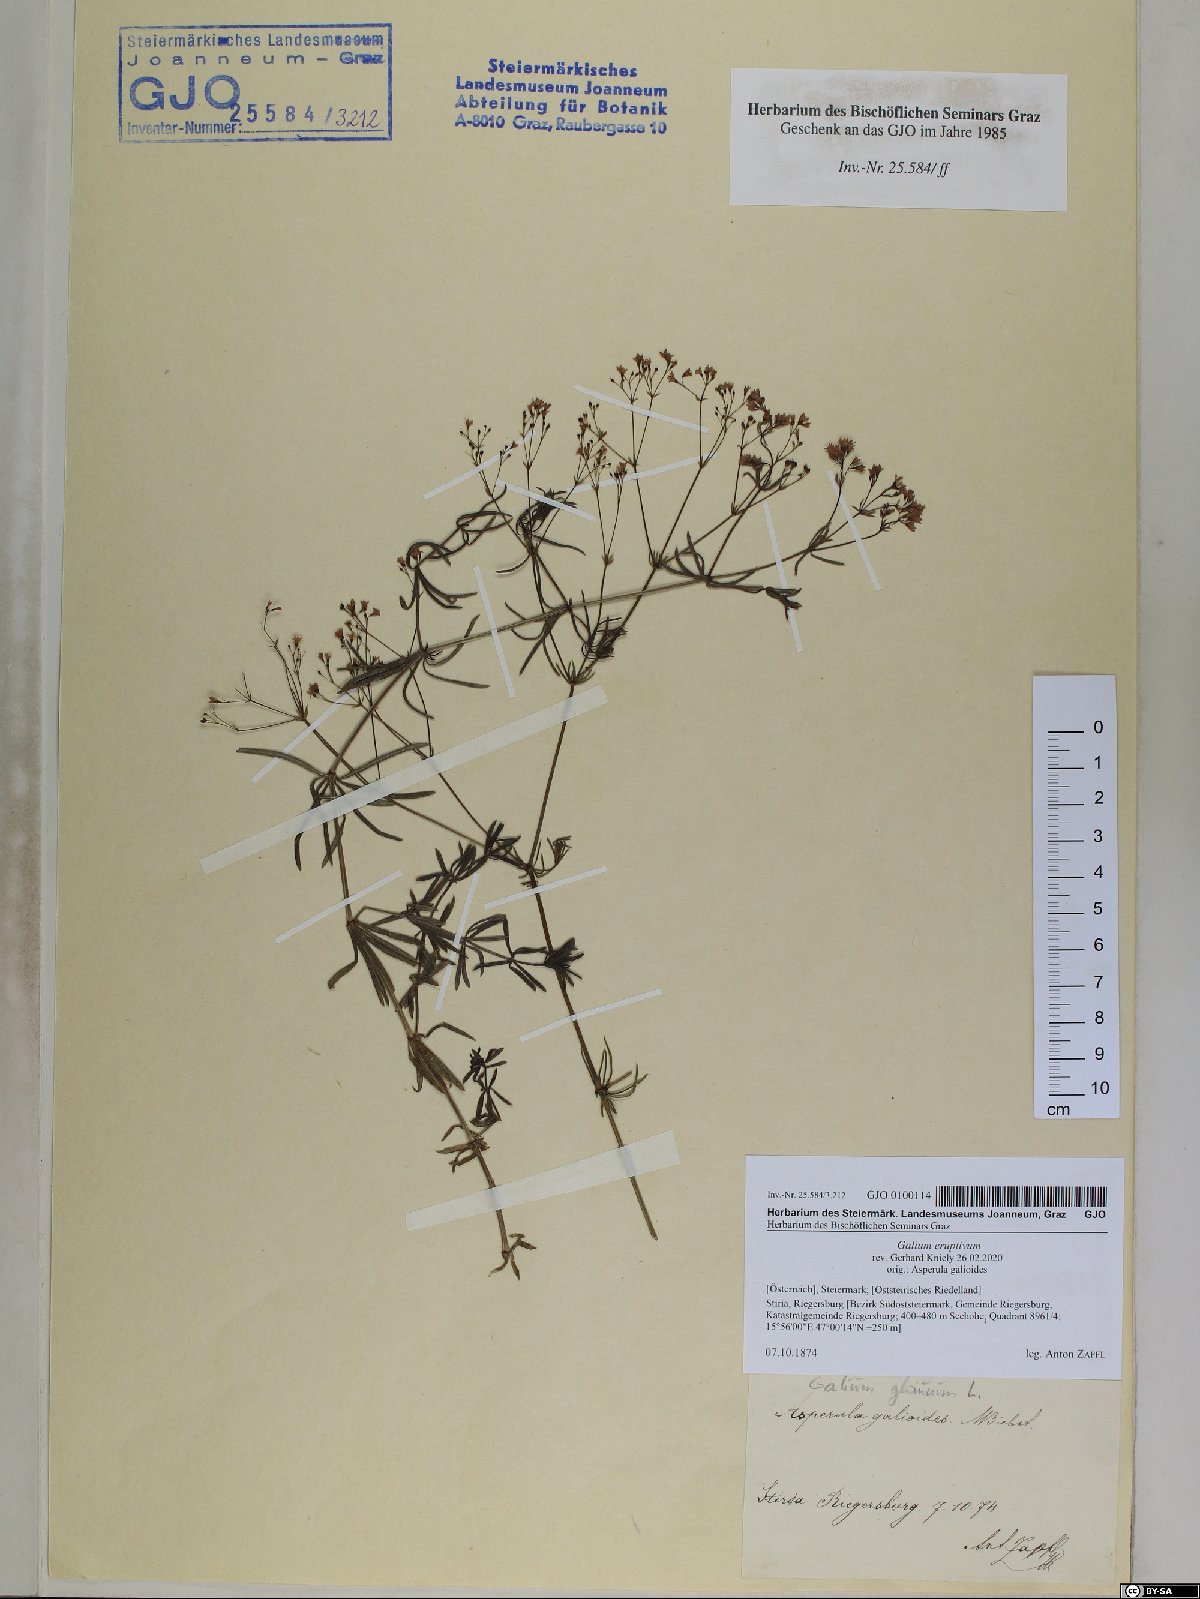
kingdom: Plantae
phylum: Tracheophyta
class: Magnoliopsida
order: Gentianales
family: Rubiaceae
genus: Galium
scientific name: Galium eruptivum
